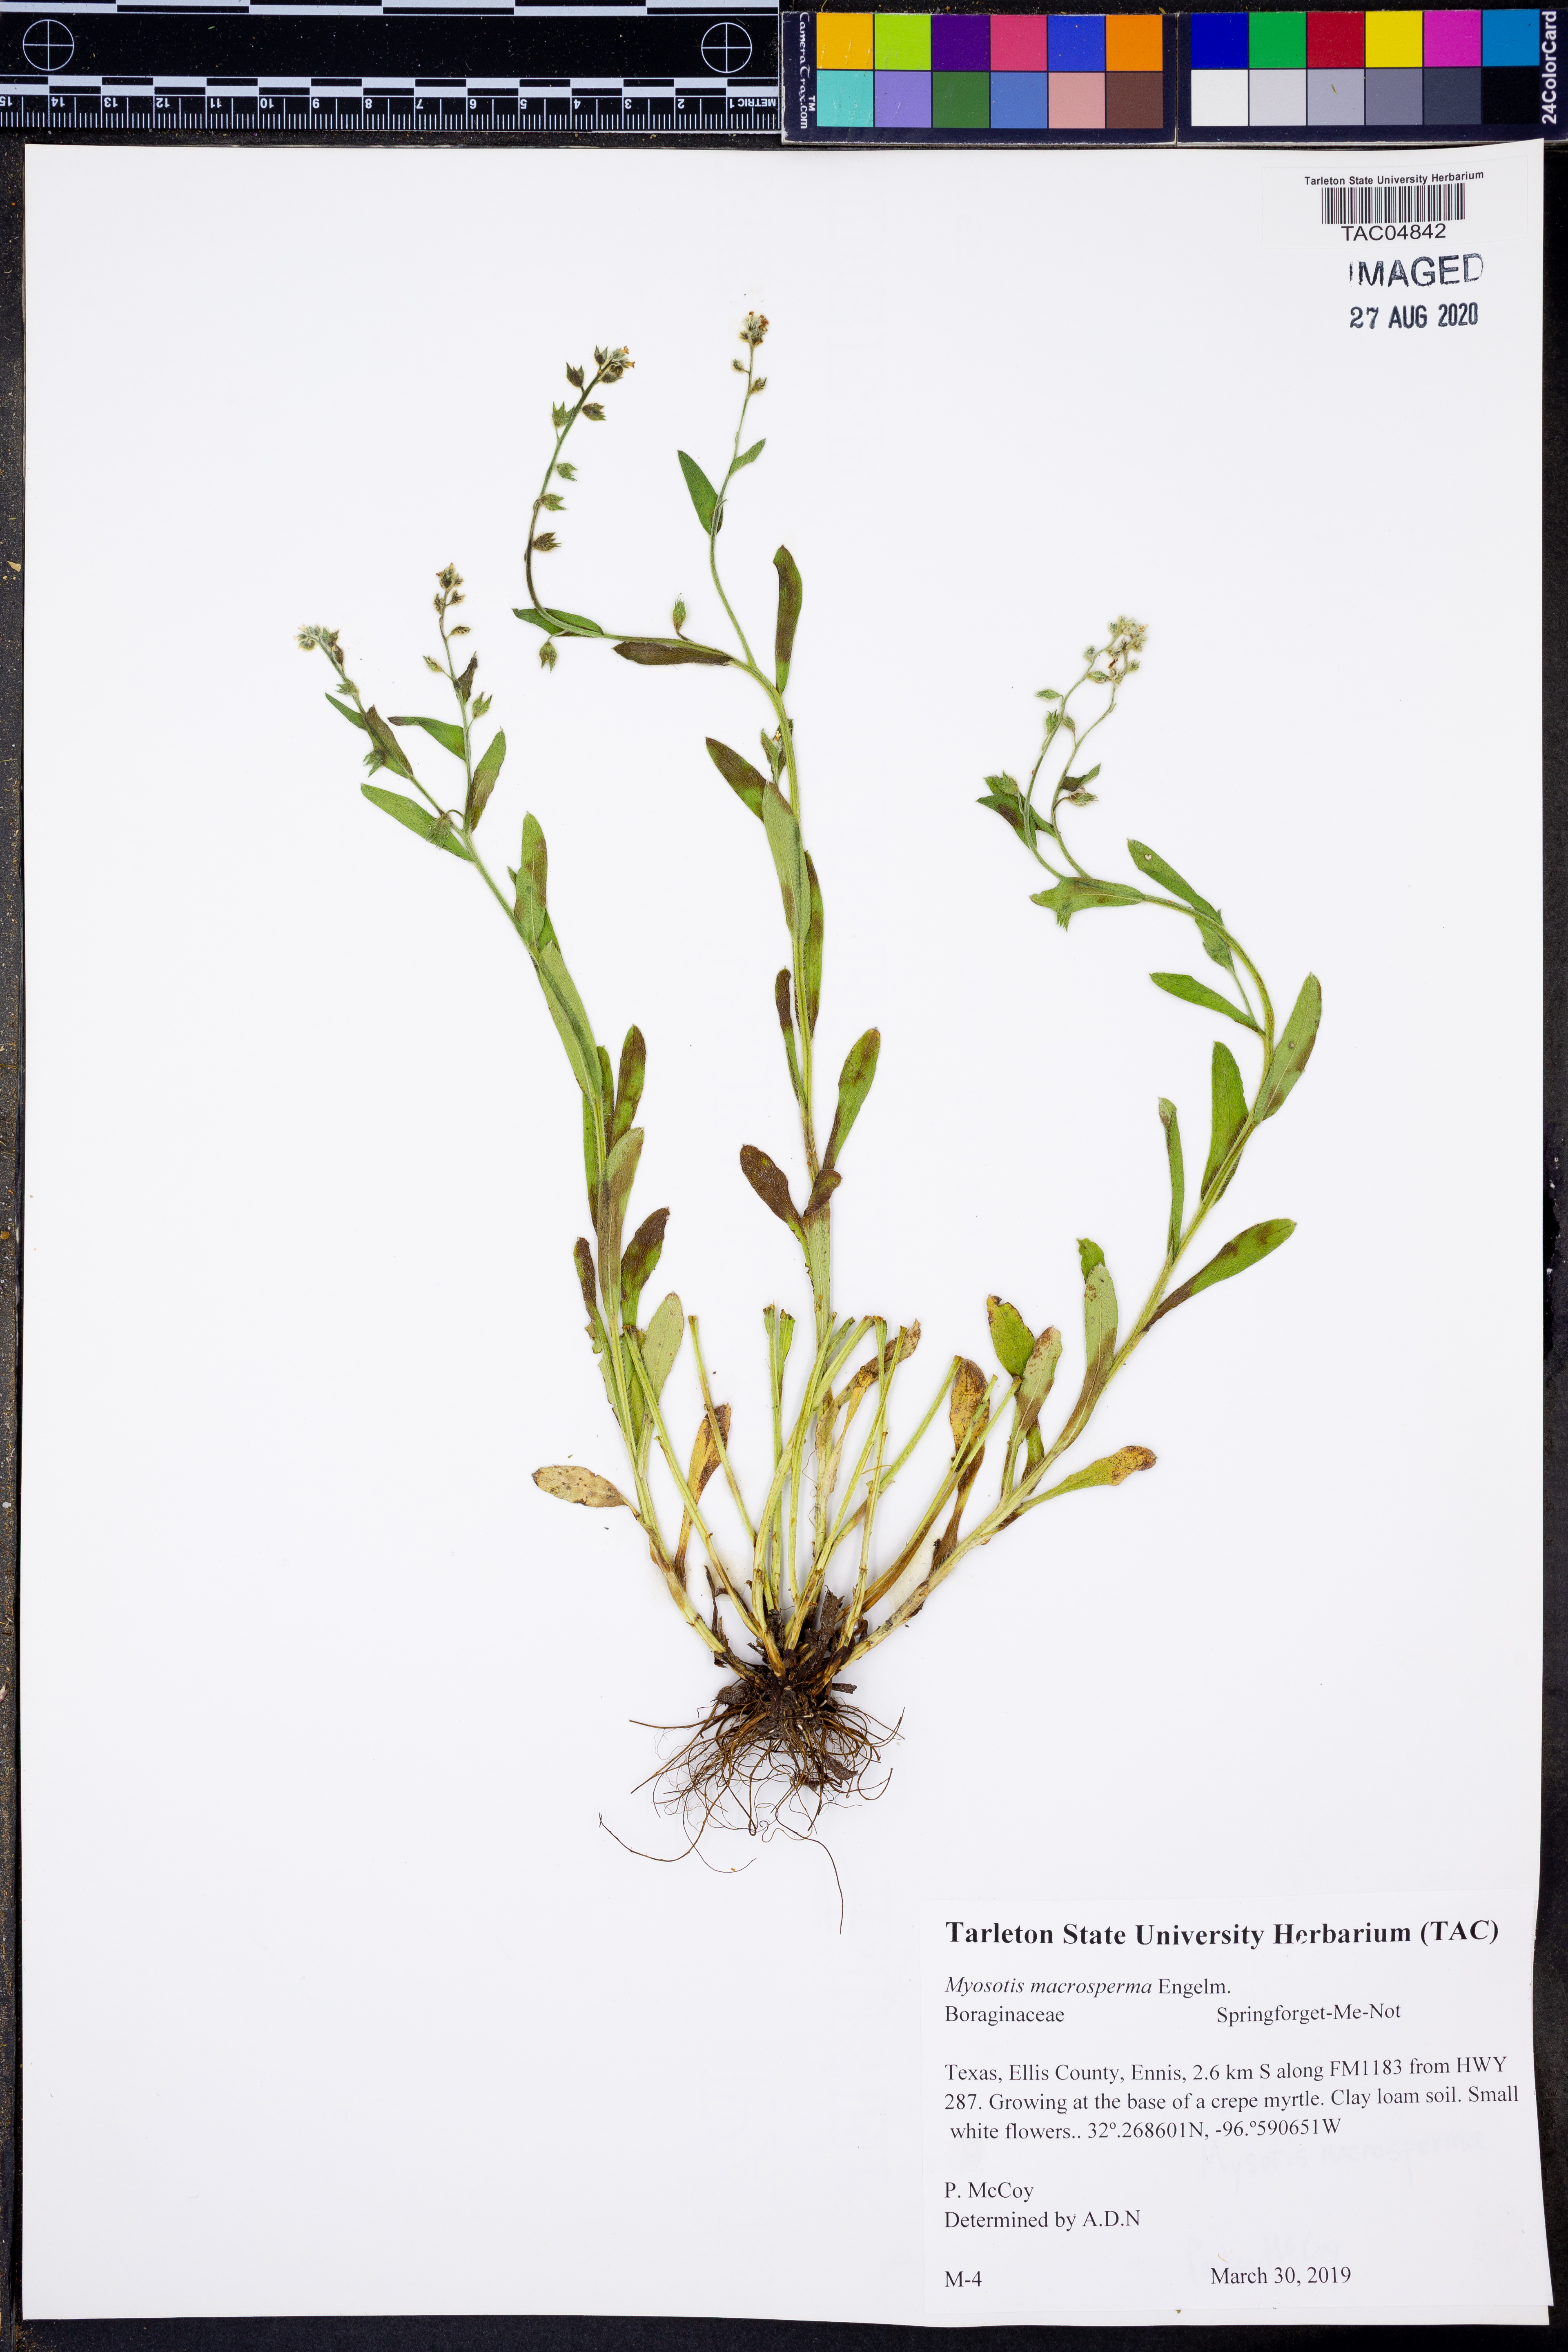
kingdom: Plantae
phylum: Tracheophyta
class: Magnoliopsida
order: Boraginales
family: Boraginaceae
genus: Myosotis
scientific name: Myosotis macrosperma
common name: Large-seed forget-me-not
